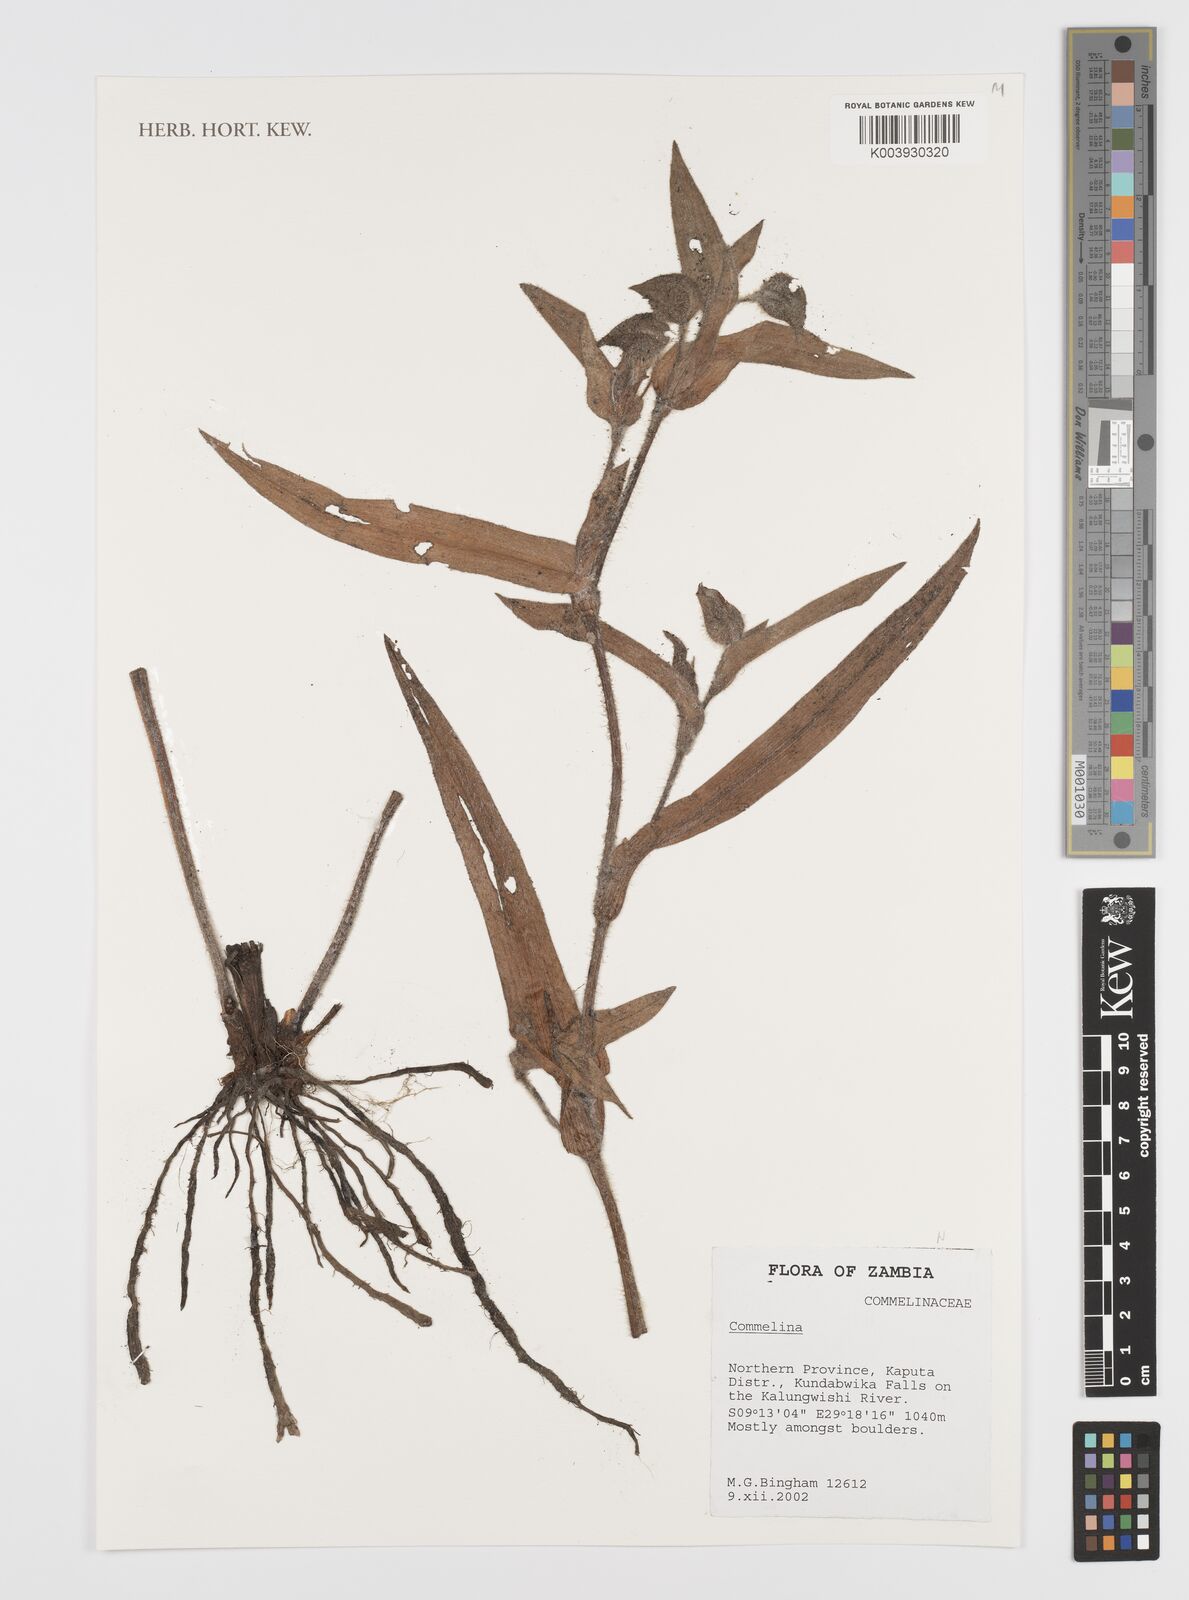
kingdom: Plantae
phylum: Tracheophyta
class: Liliopsida
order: Commelinales
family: Commelinaceae
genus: Commelina
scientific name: Commelina cecilae
